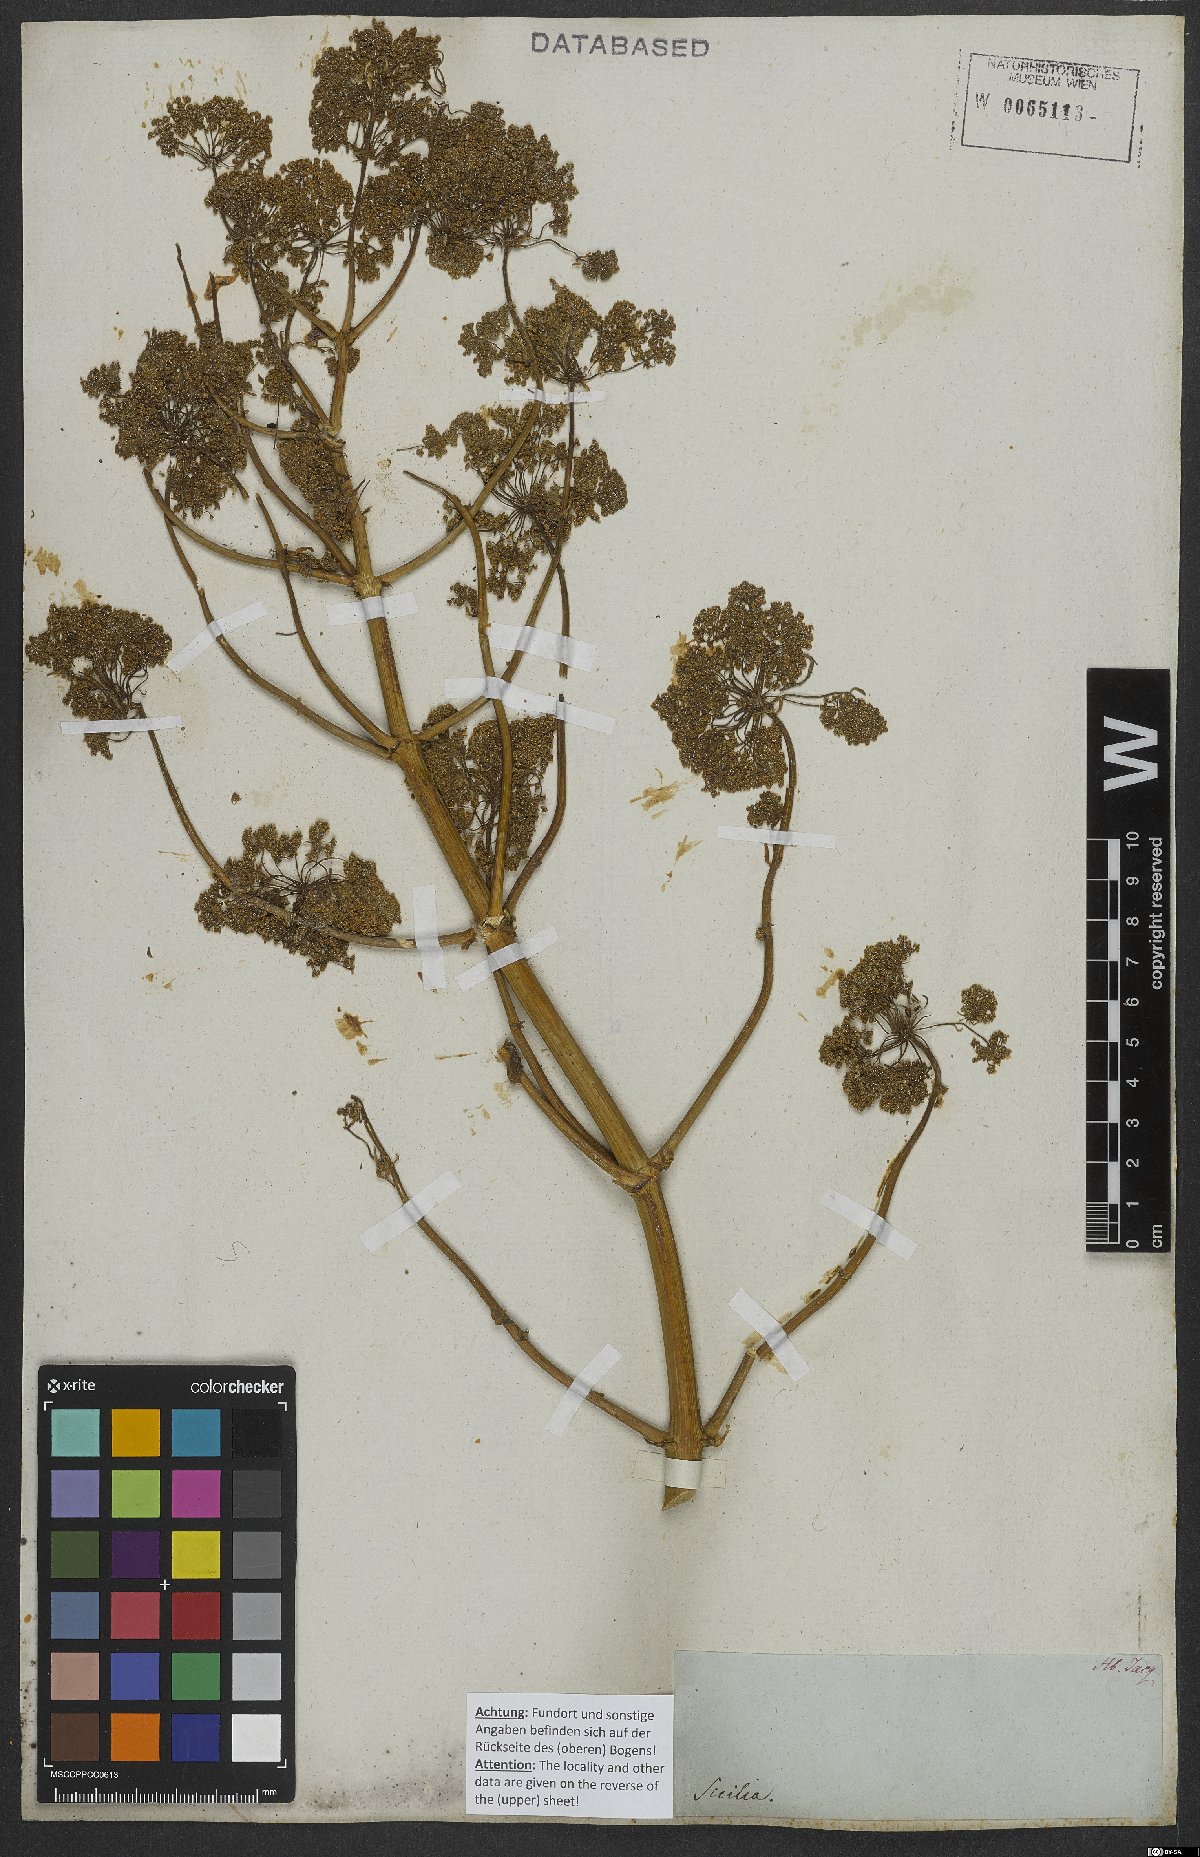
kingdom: Plantae
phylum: Tracheophyta
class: Magnoliopsida
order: Apiales
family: Apiaceae
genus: Ferula
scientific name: Ferula communis
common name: Giant fennel
